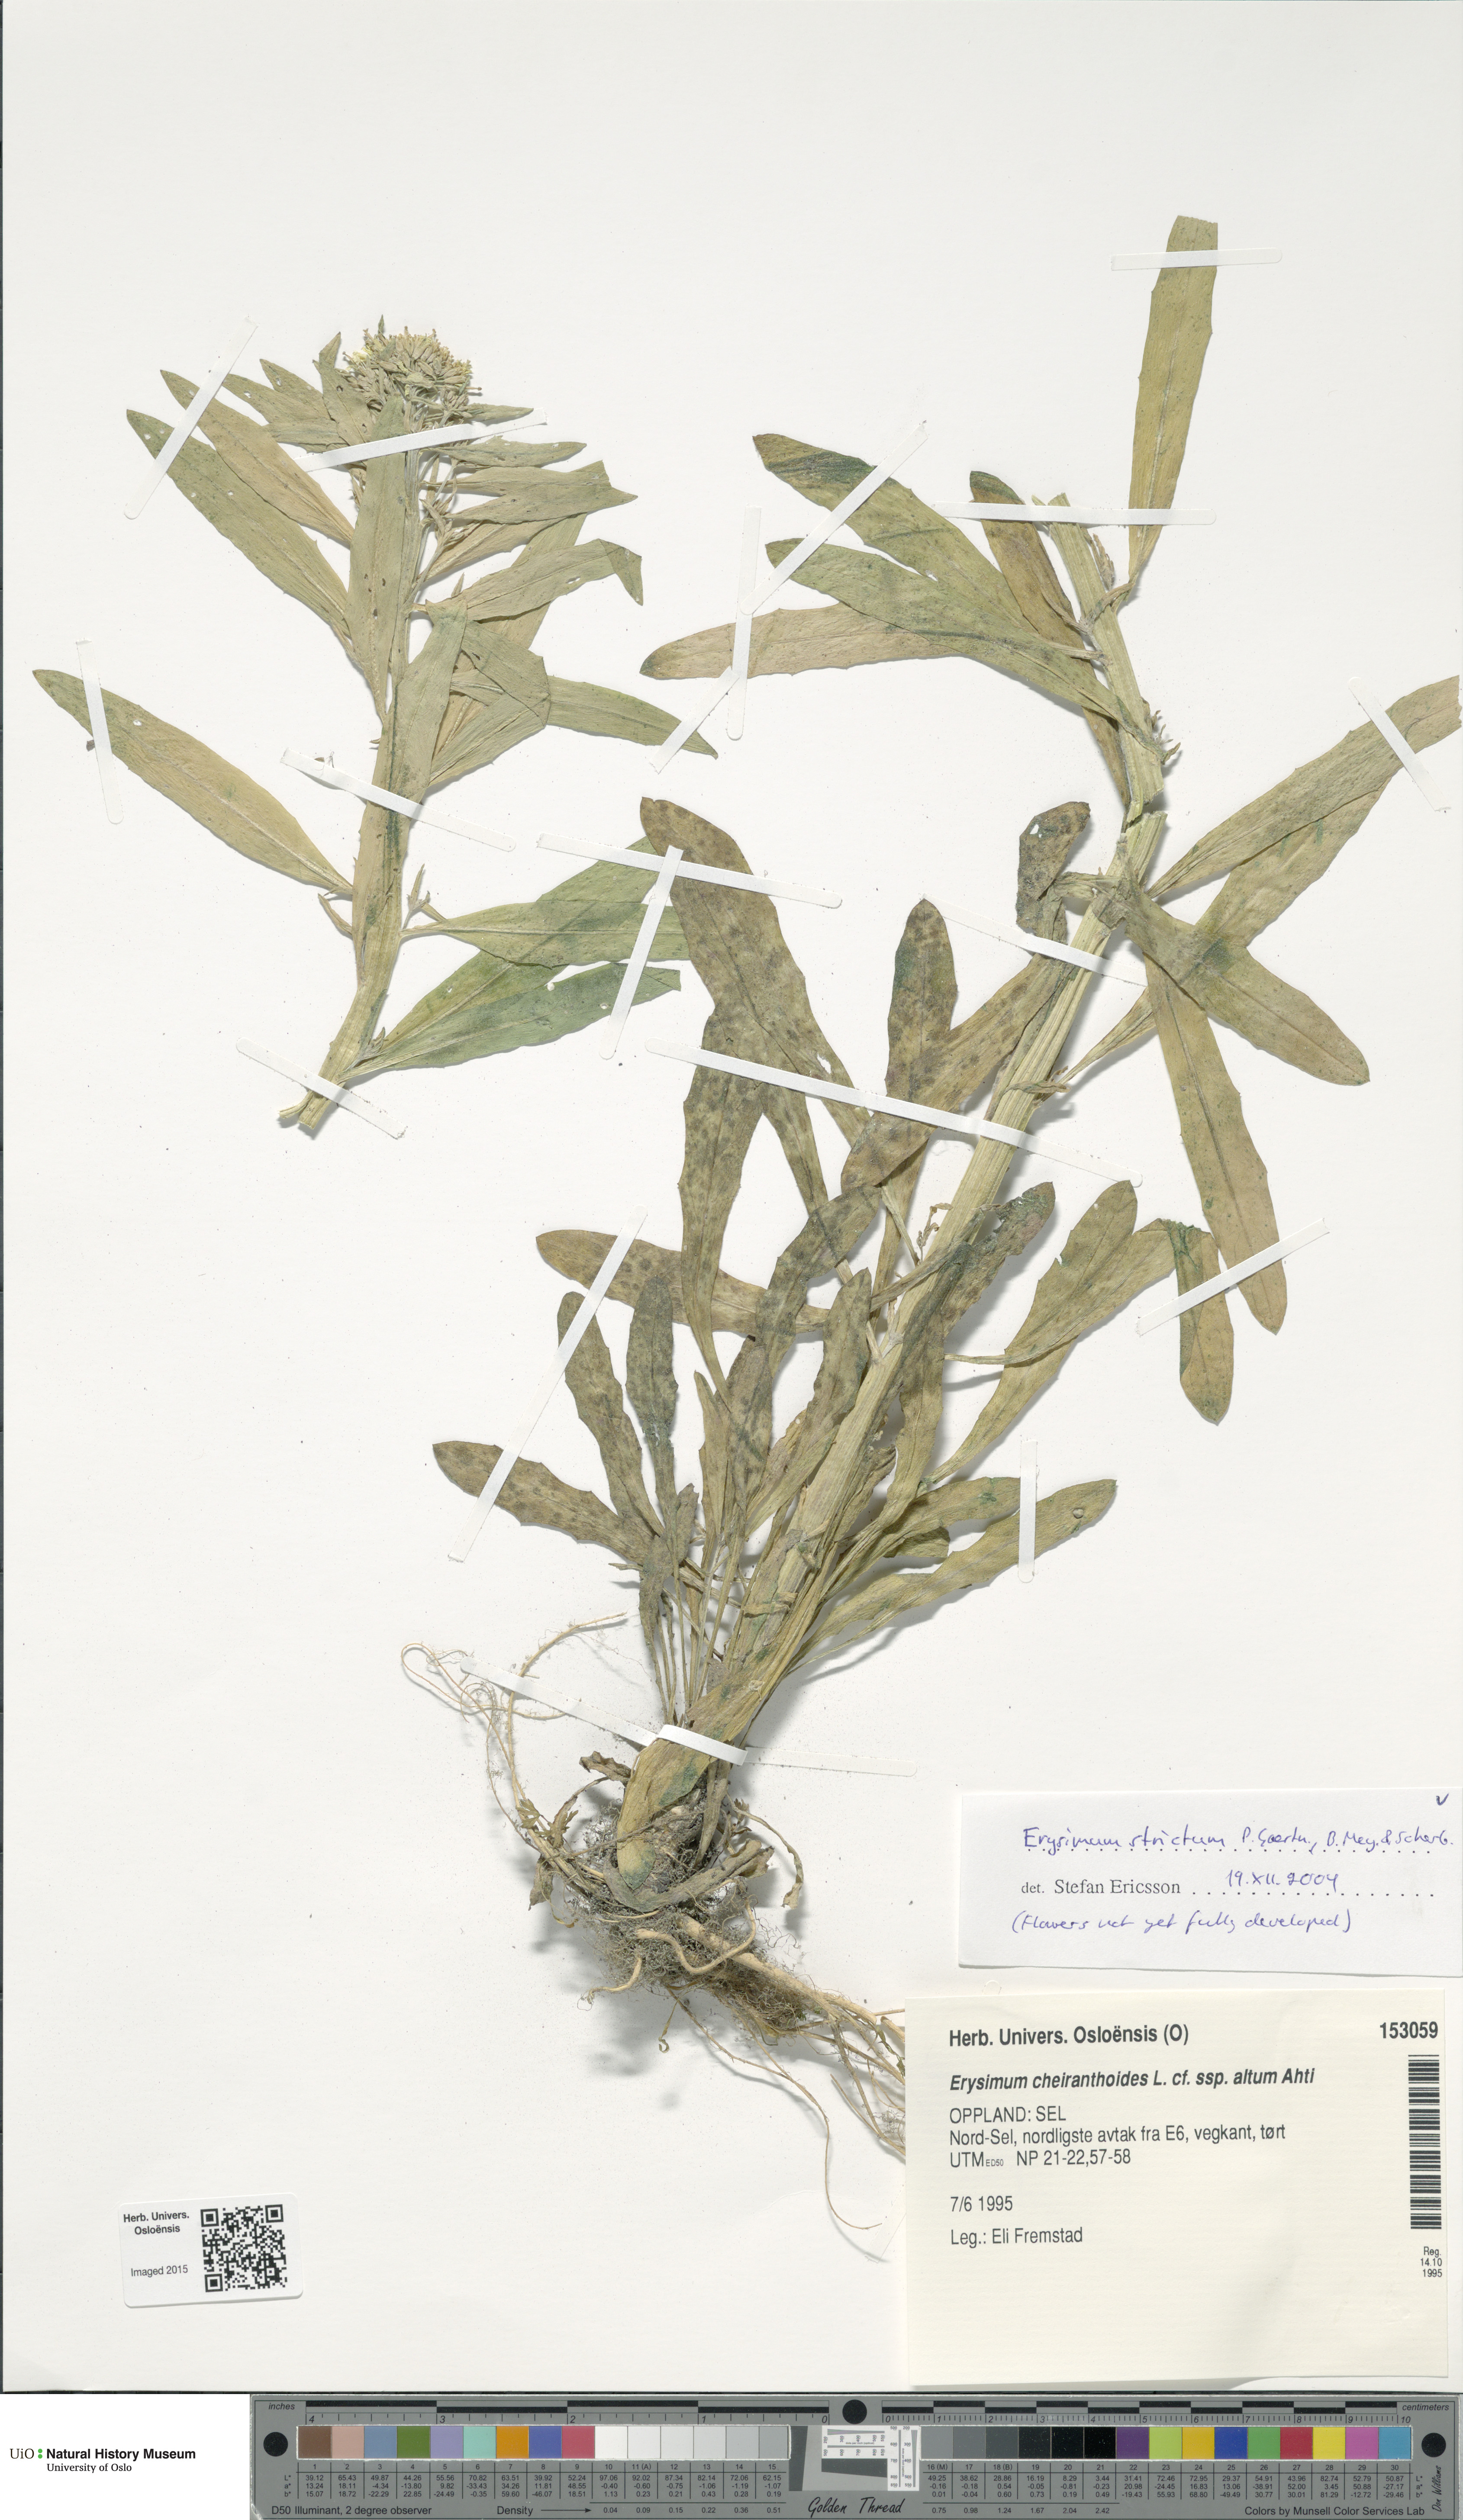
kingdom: Plantae
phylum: Tracheophyta
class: Magnoliopsida
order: Brassicales
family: Brassicaceae
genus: Erysimum
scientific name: Erysimum virgatum
